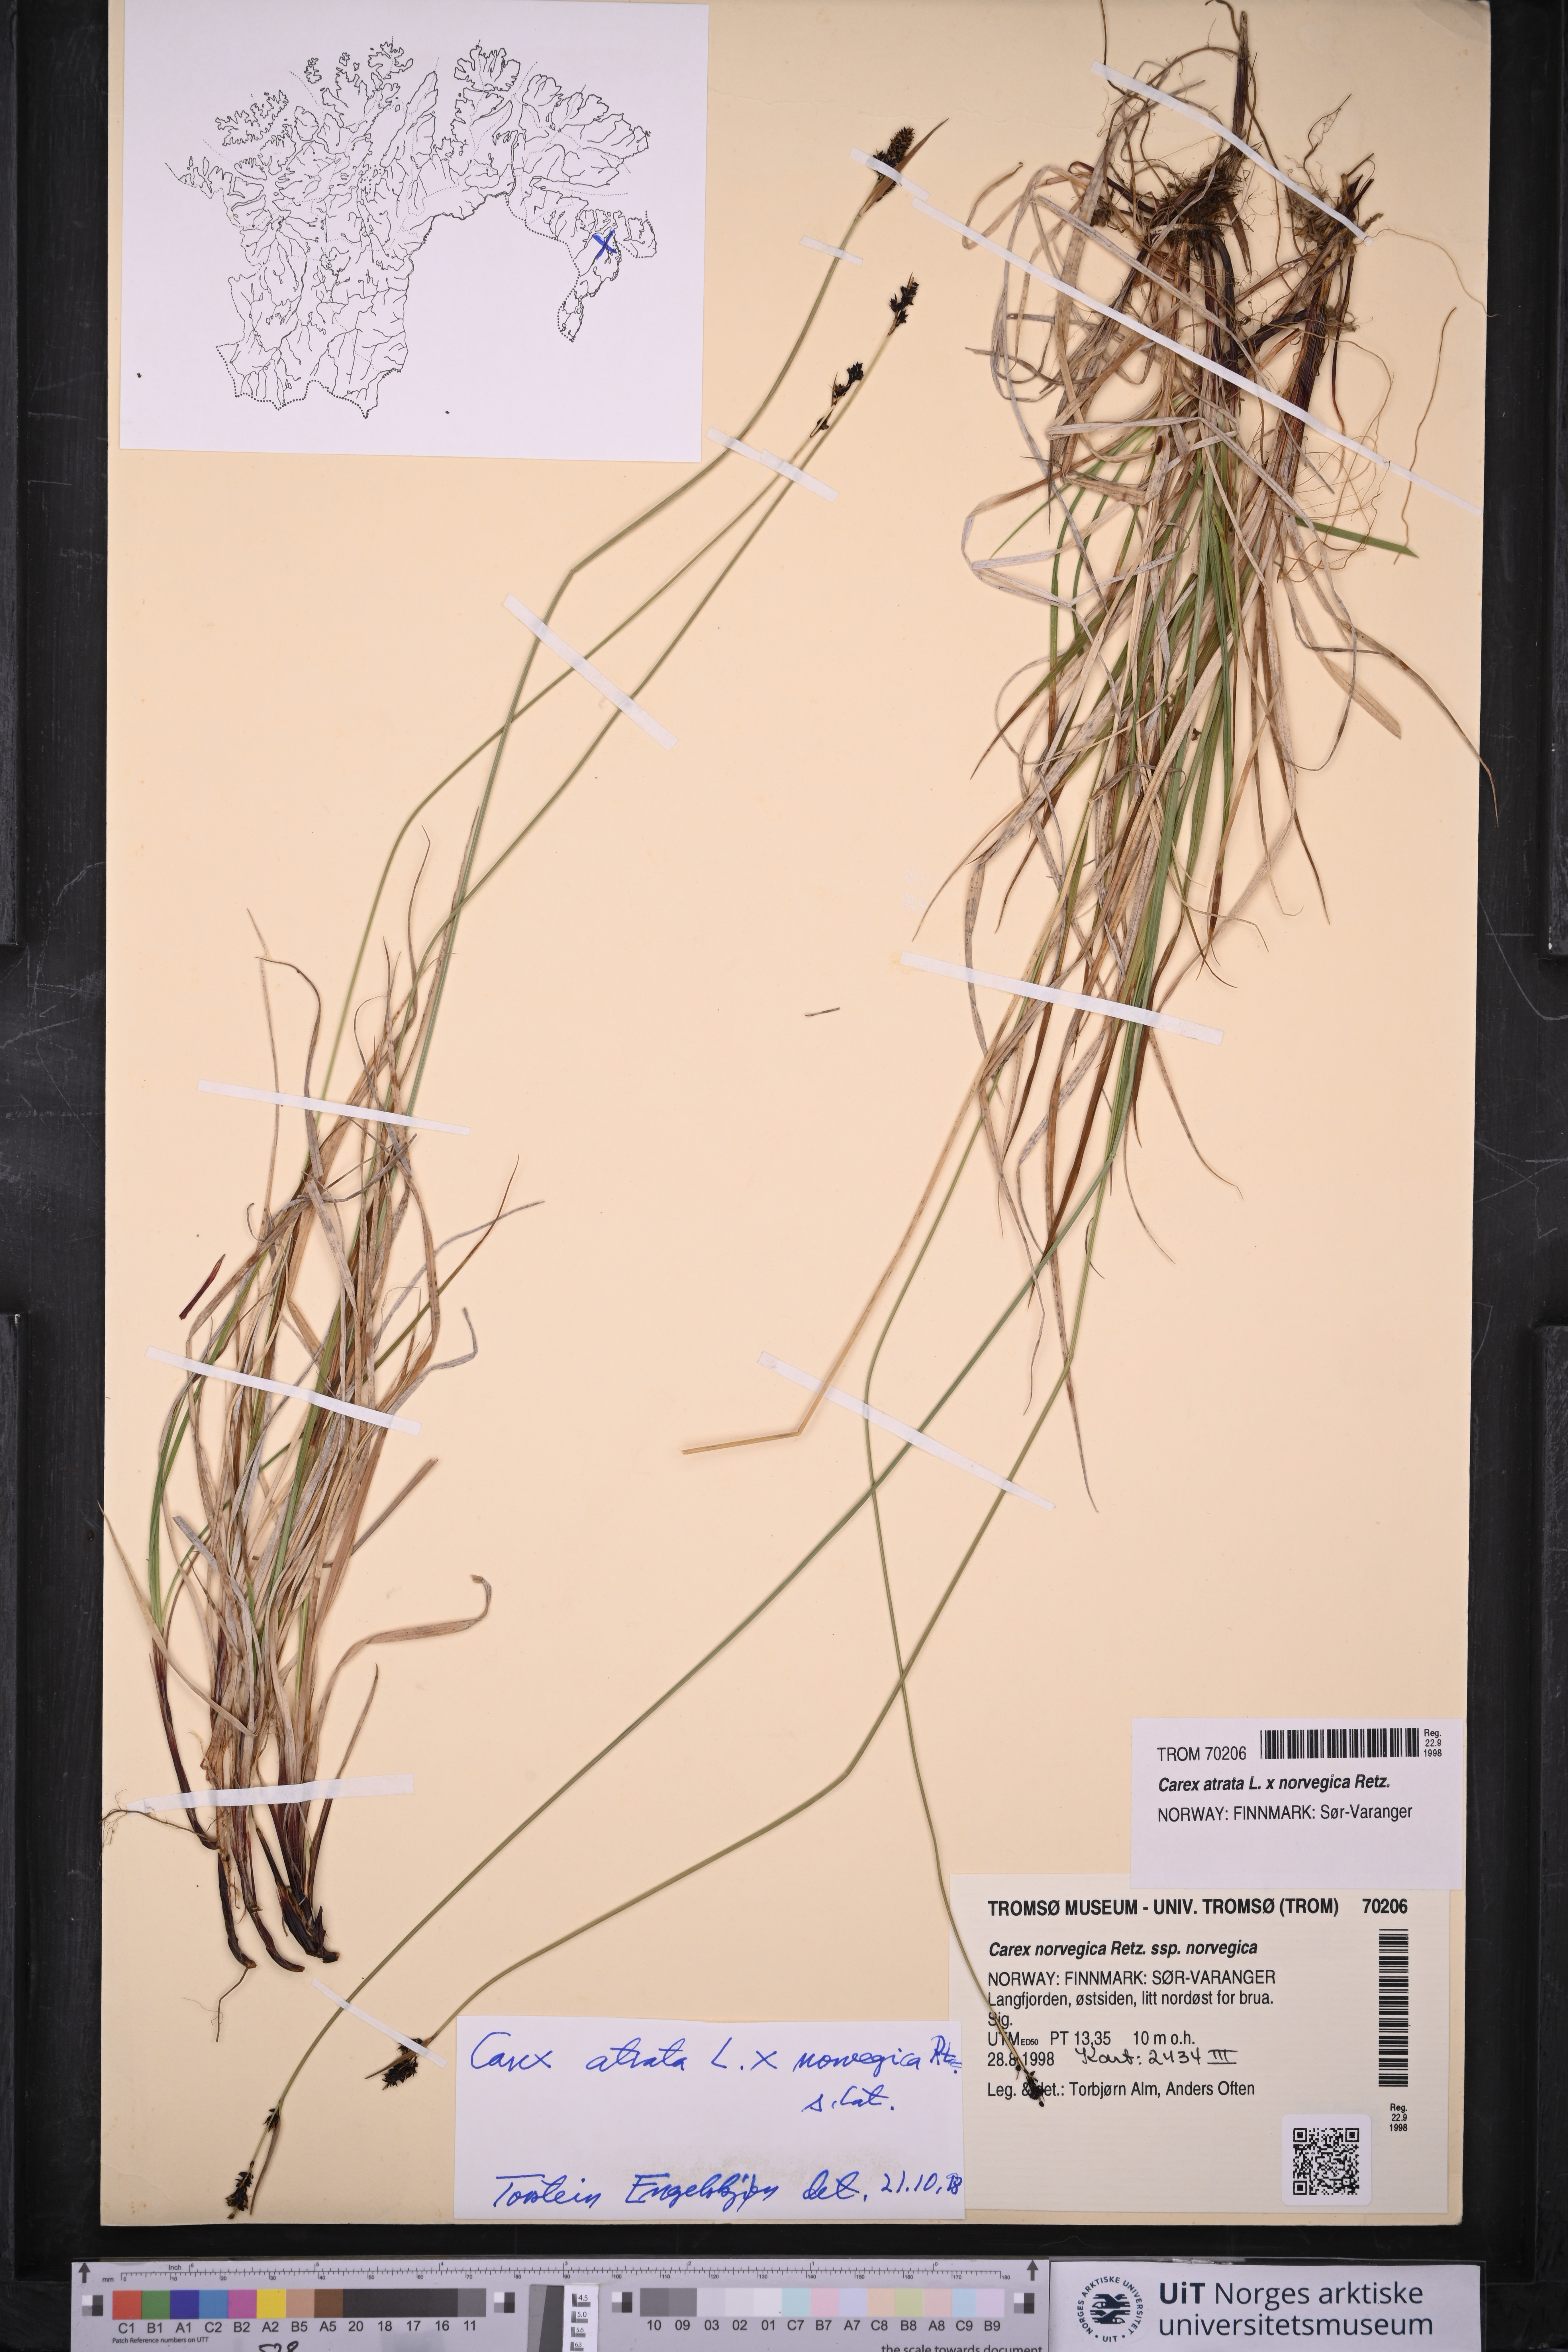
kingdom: Plantae
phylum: Tracheophyta
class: Liliopsida
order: Poales
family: Cyperaceae
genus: Carex
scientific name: Carex atrata
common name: Black alpine sedge
